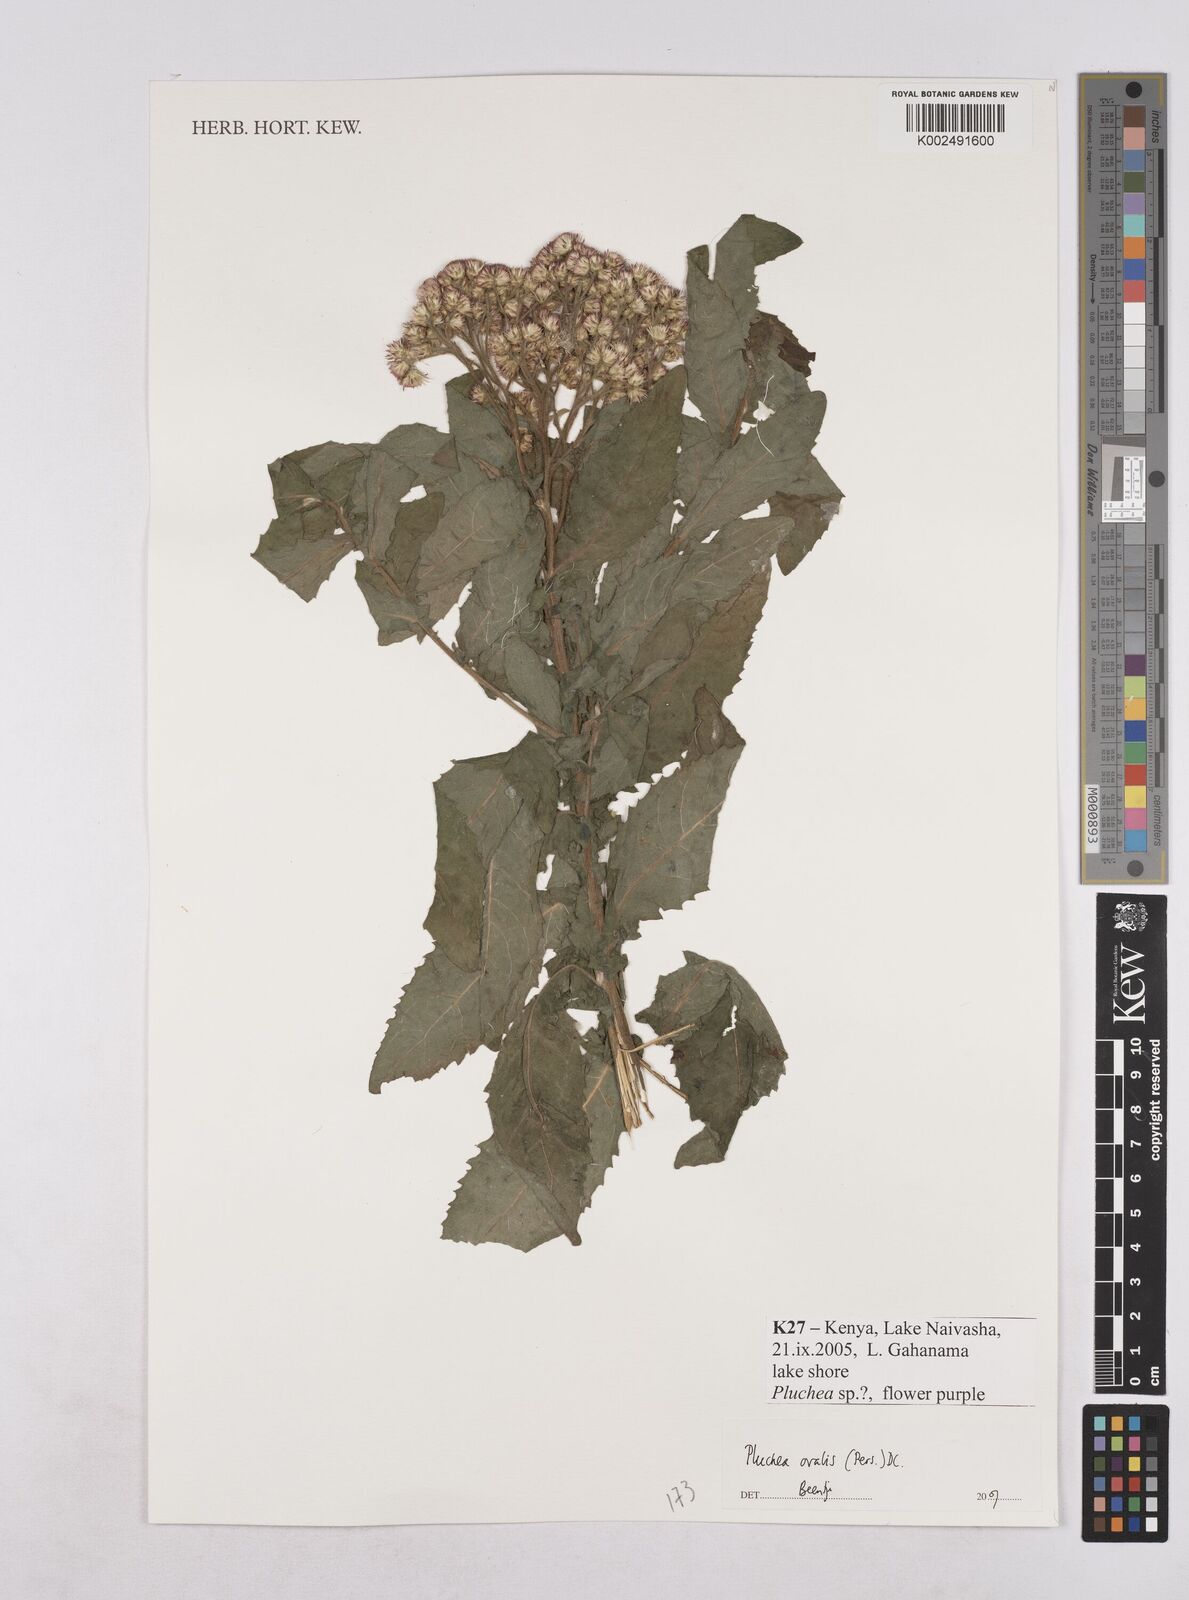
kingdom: Plantae
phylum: Tracheophyta
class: Magnoliopsida
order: Asterales
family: Asteraceae
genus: Pluchea
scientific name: Pluchea ovalis
